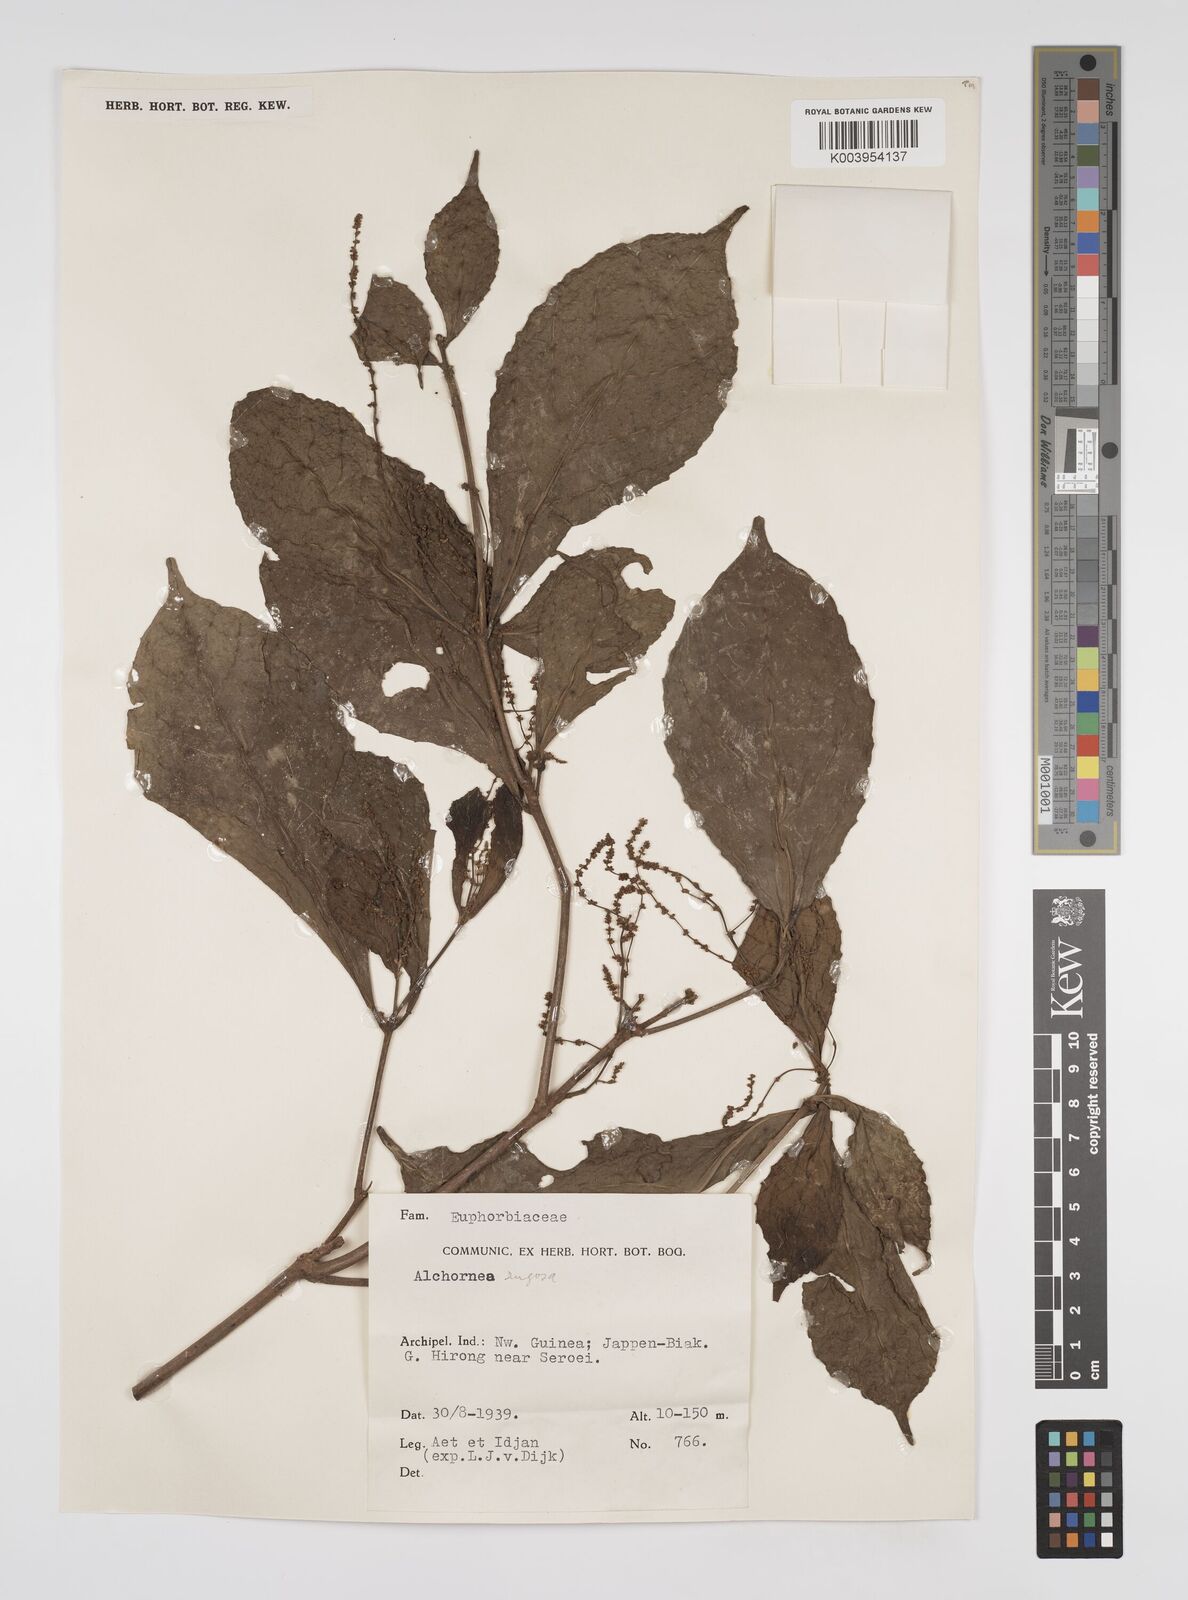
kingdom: Plantae
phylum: Tracheophyta
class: Magnoliopsida
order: Malpighiales
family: Euphorbiaceae
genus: Alchornea
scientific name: Alchornea rugosa
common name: Alchorntree
